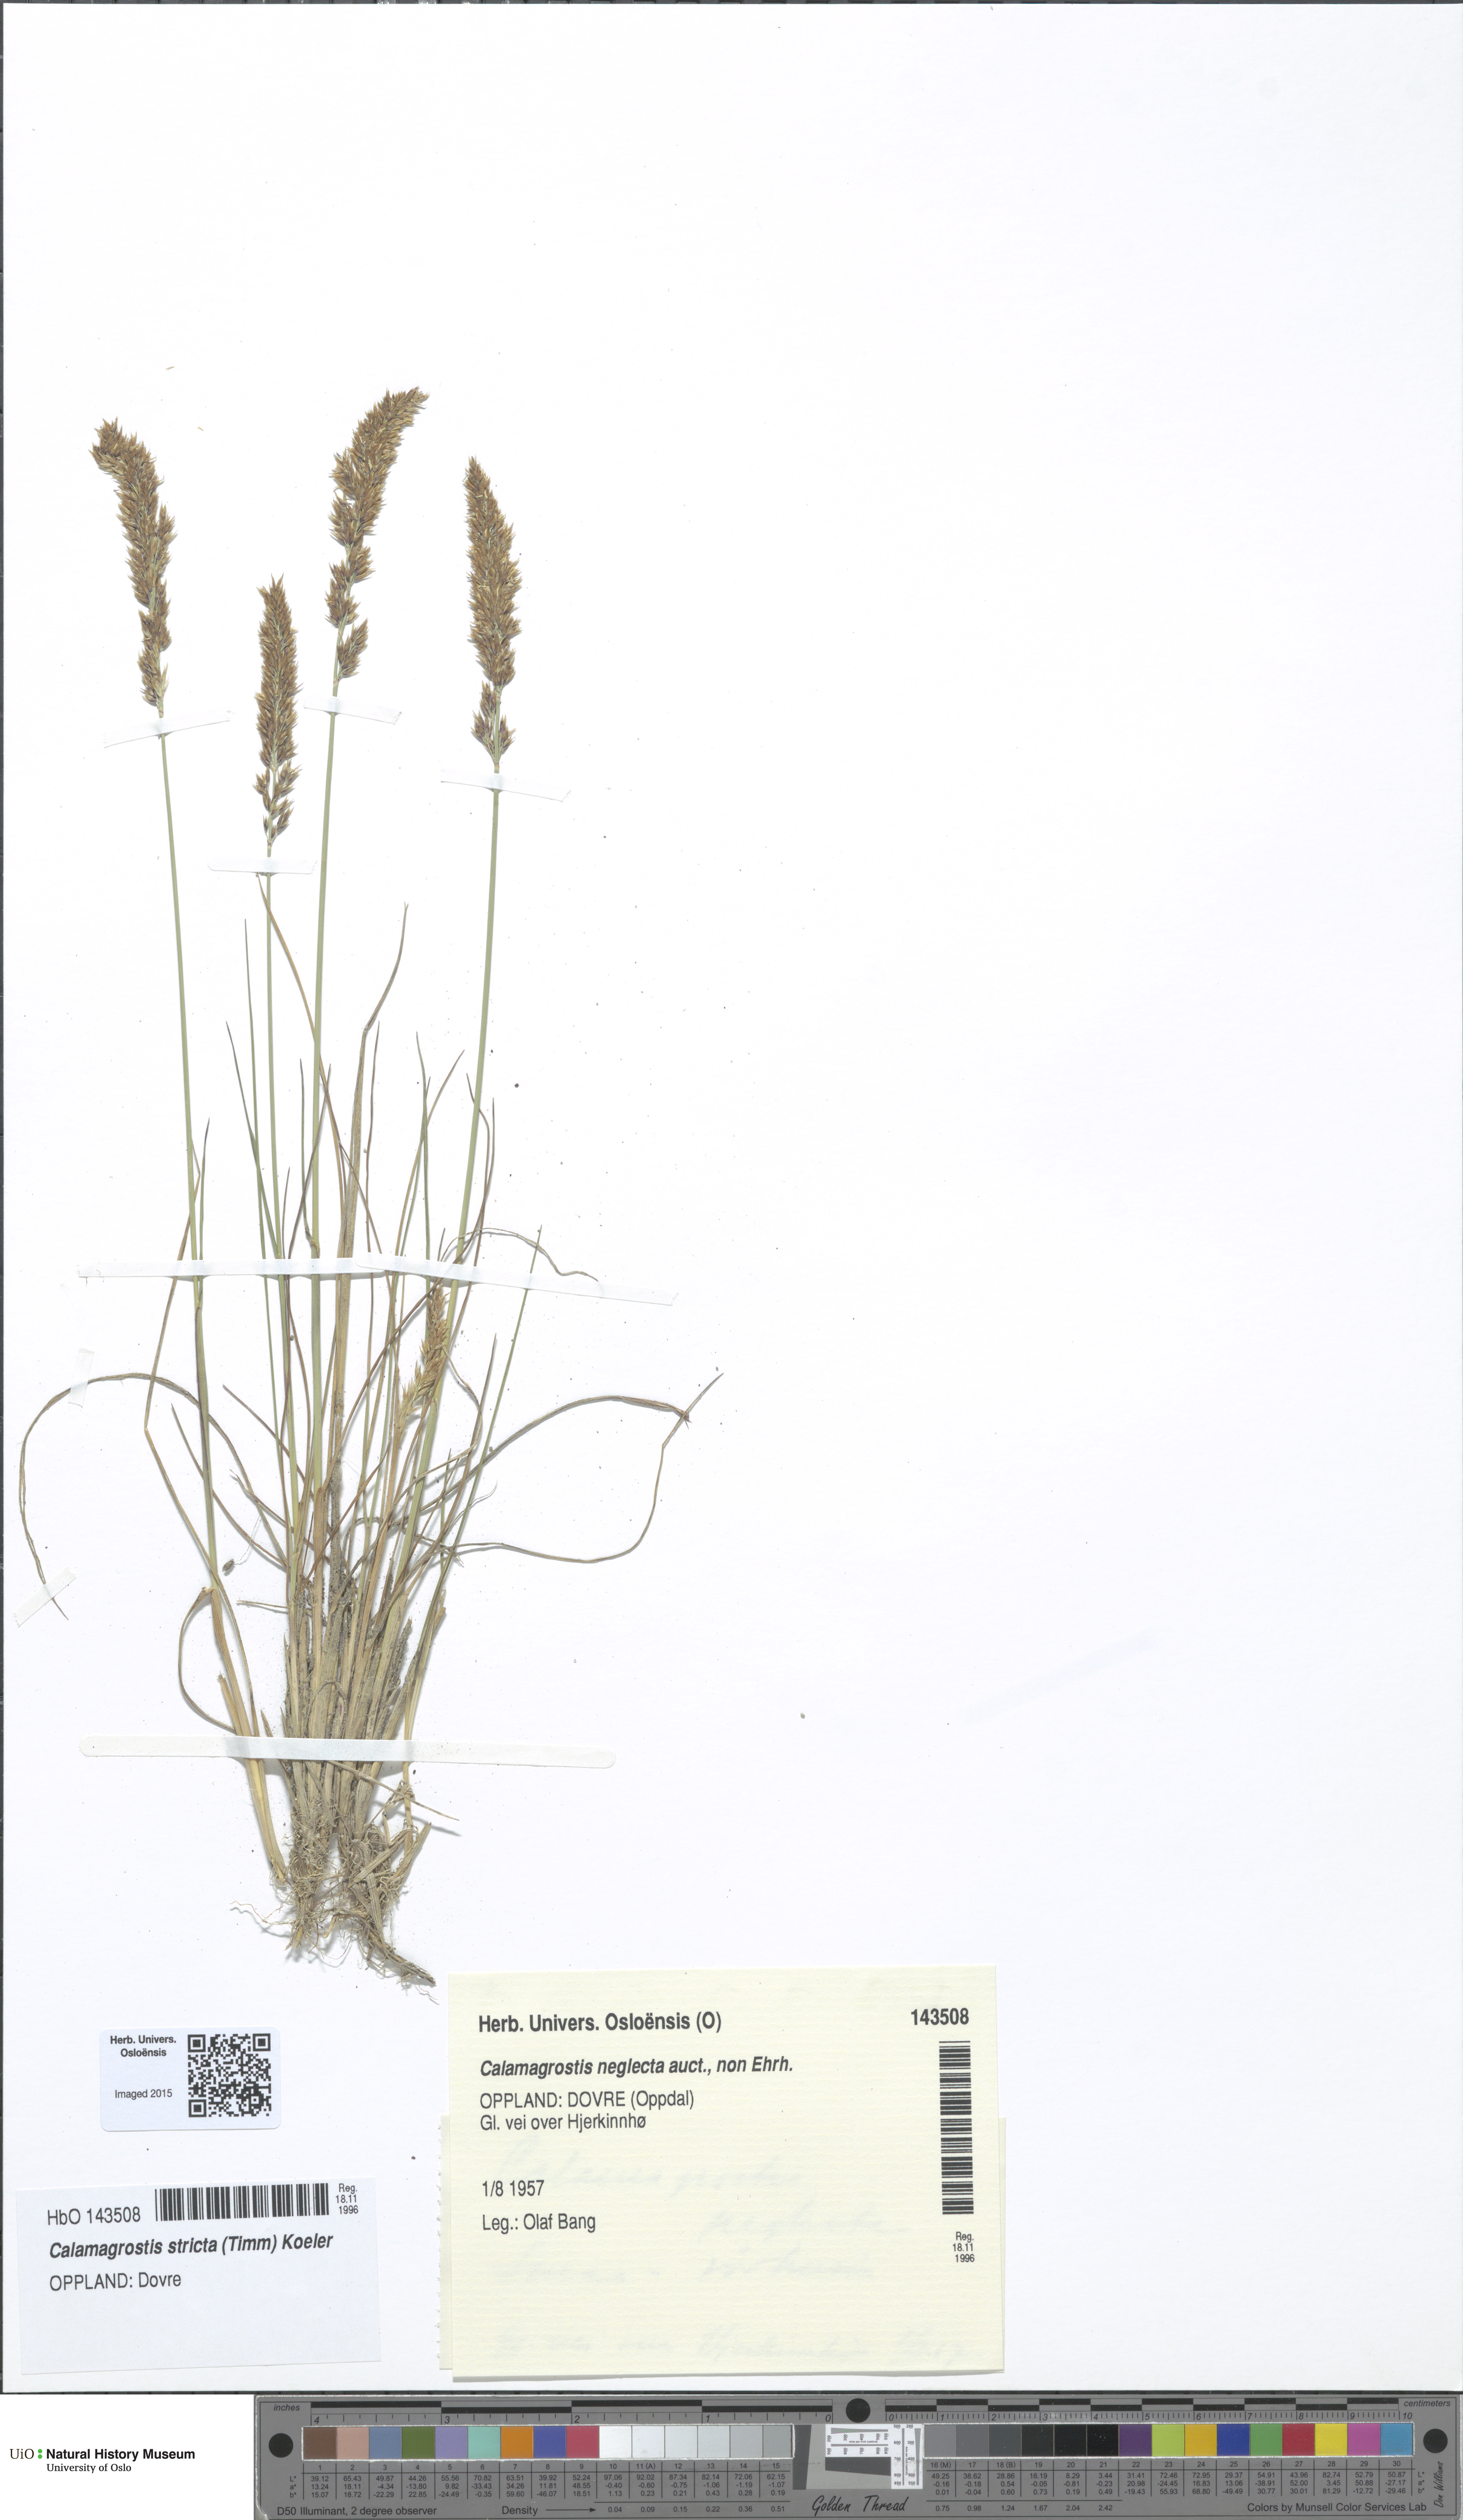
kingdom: Plantae
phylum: Tracheophyta
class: Liliopsida
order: Poales
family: Poaceae
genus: Achnatherum
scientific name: Achnatherum calamagrostis
